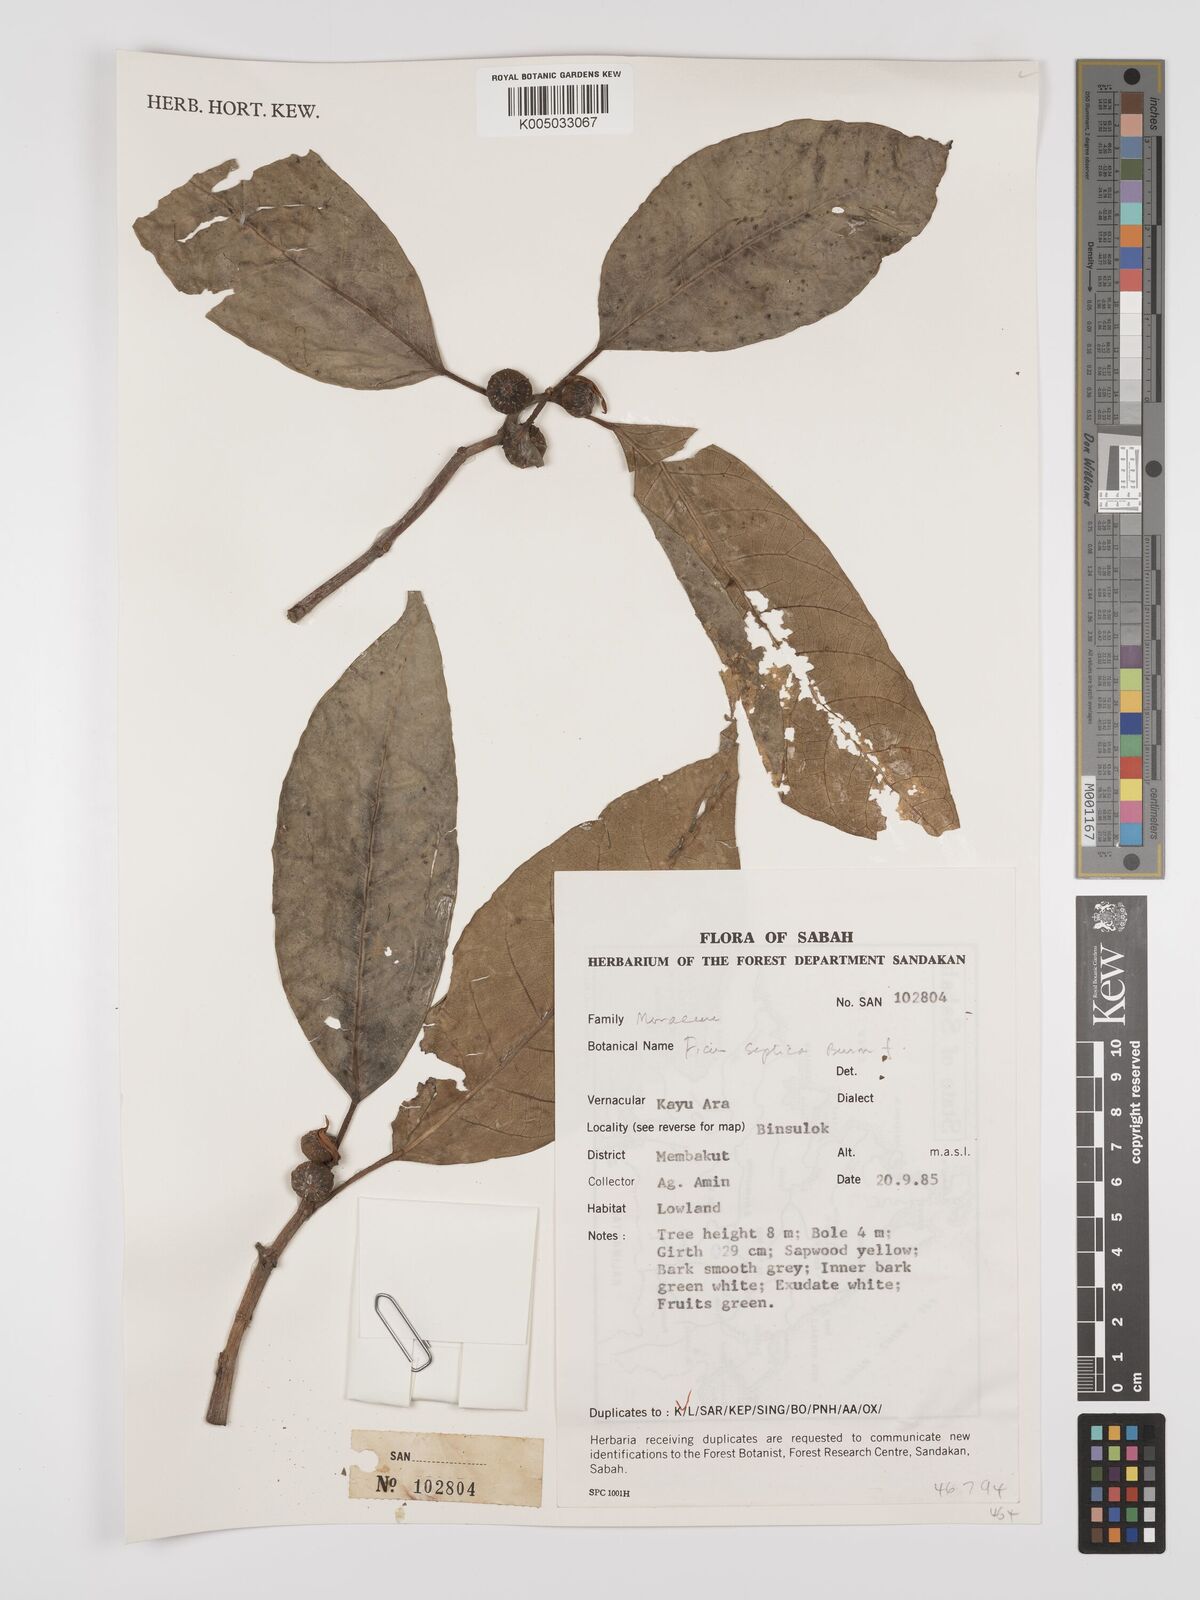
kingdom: Plantae
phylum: Tracheophyta
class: Magnoliopsida
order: Rosales
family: Moraceae
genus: Ficus
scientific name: Ficus septica
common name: Septic fig
